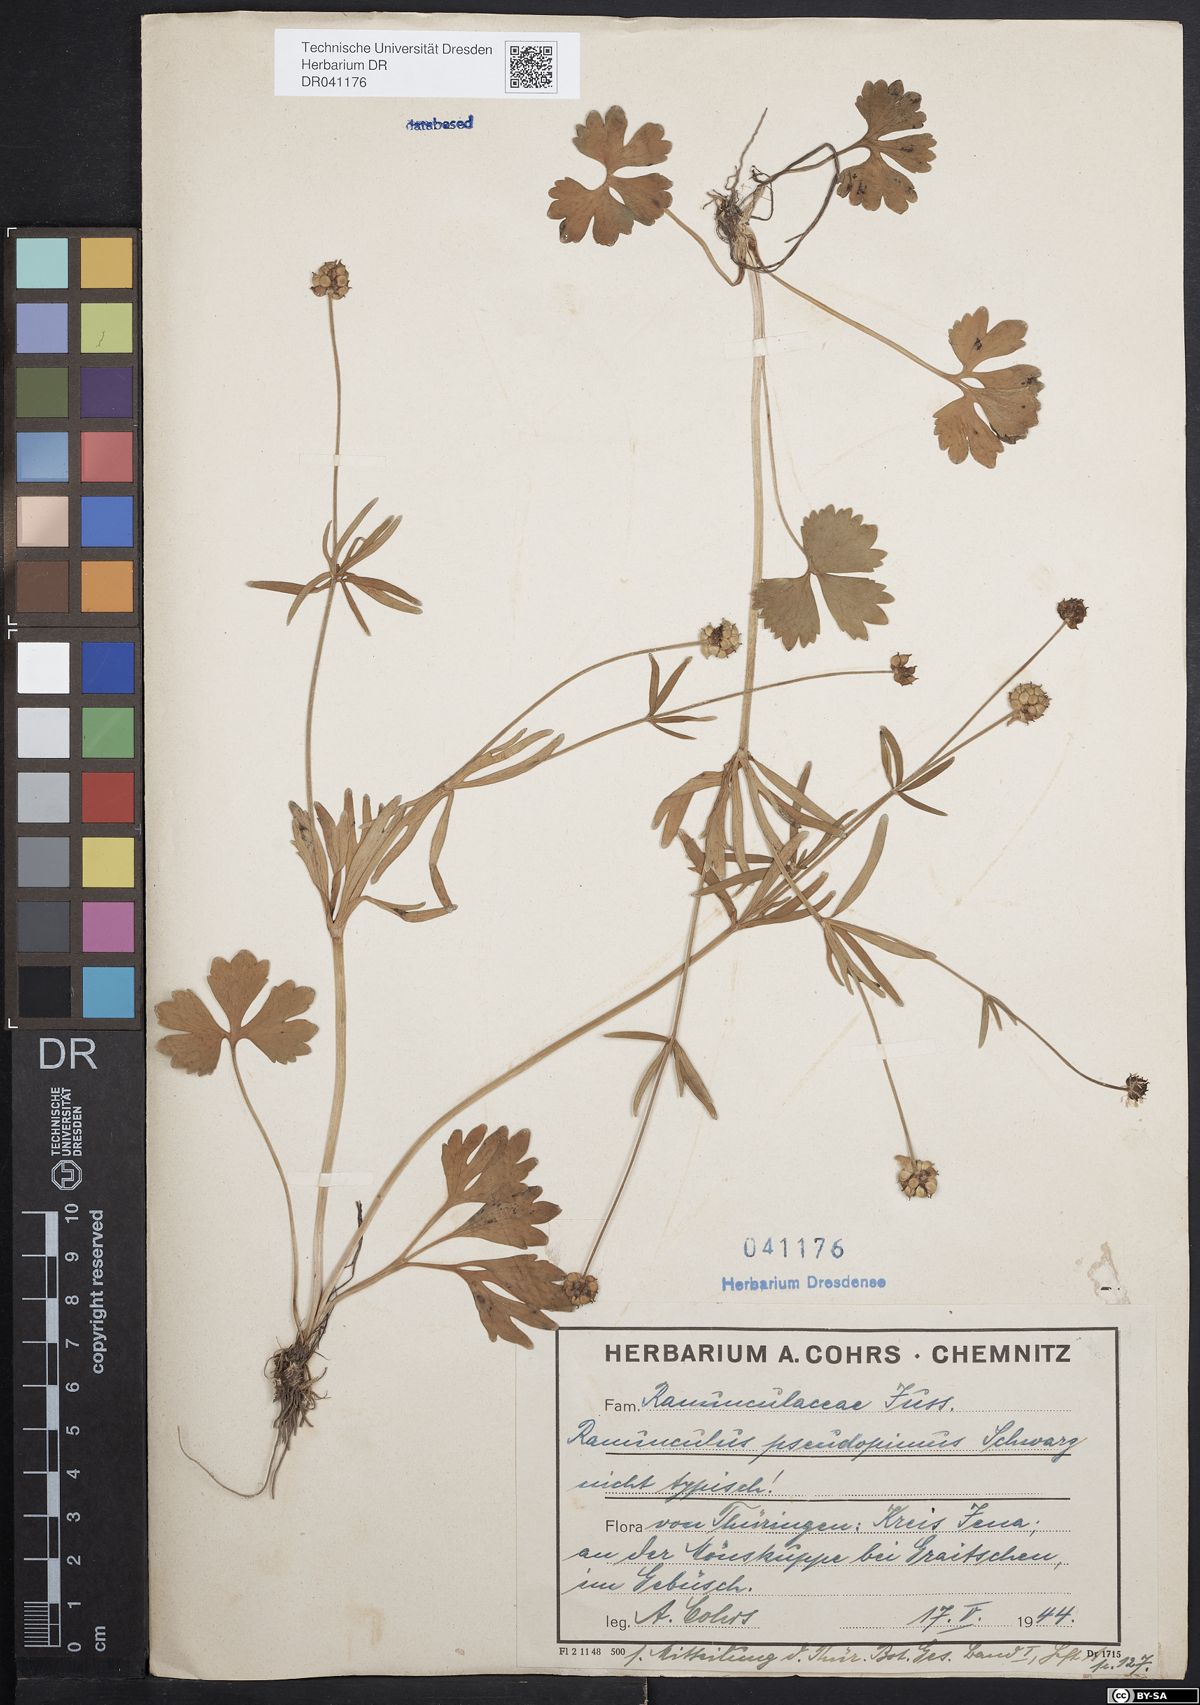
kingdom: Plantae
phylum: Tracheophyta
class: Magnoliopsida
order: Ranunculales
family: Ranunculaceae
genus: Ranunculus
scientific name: Ranunculus auricomus
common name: Goldilocks buttercup
